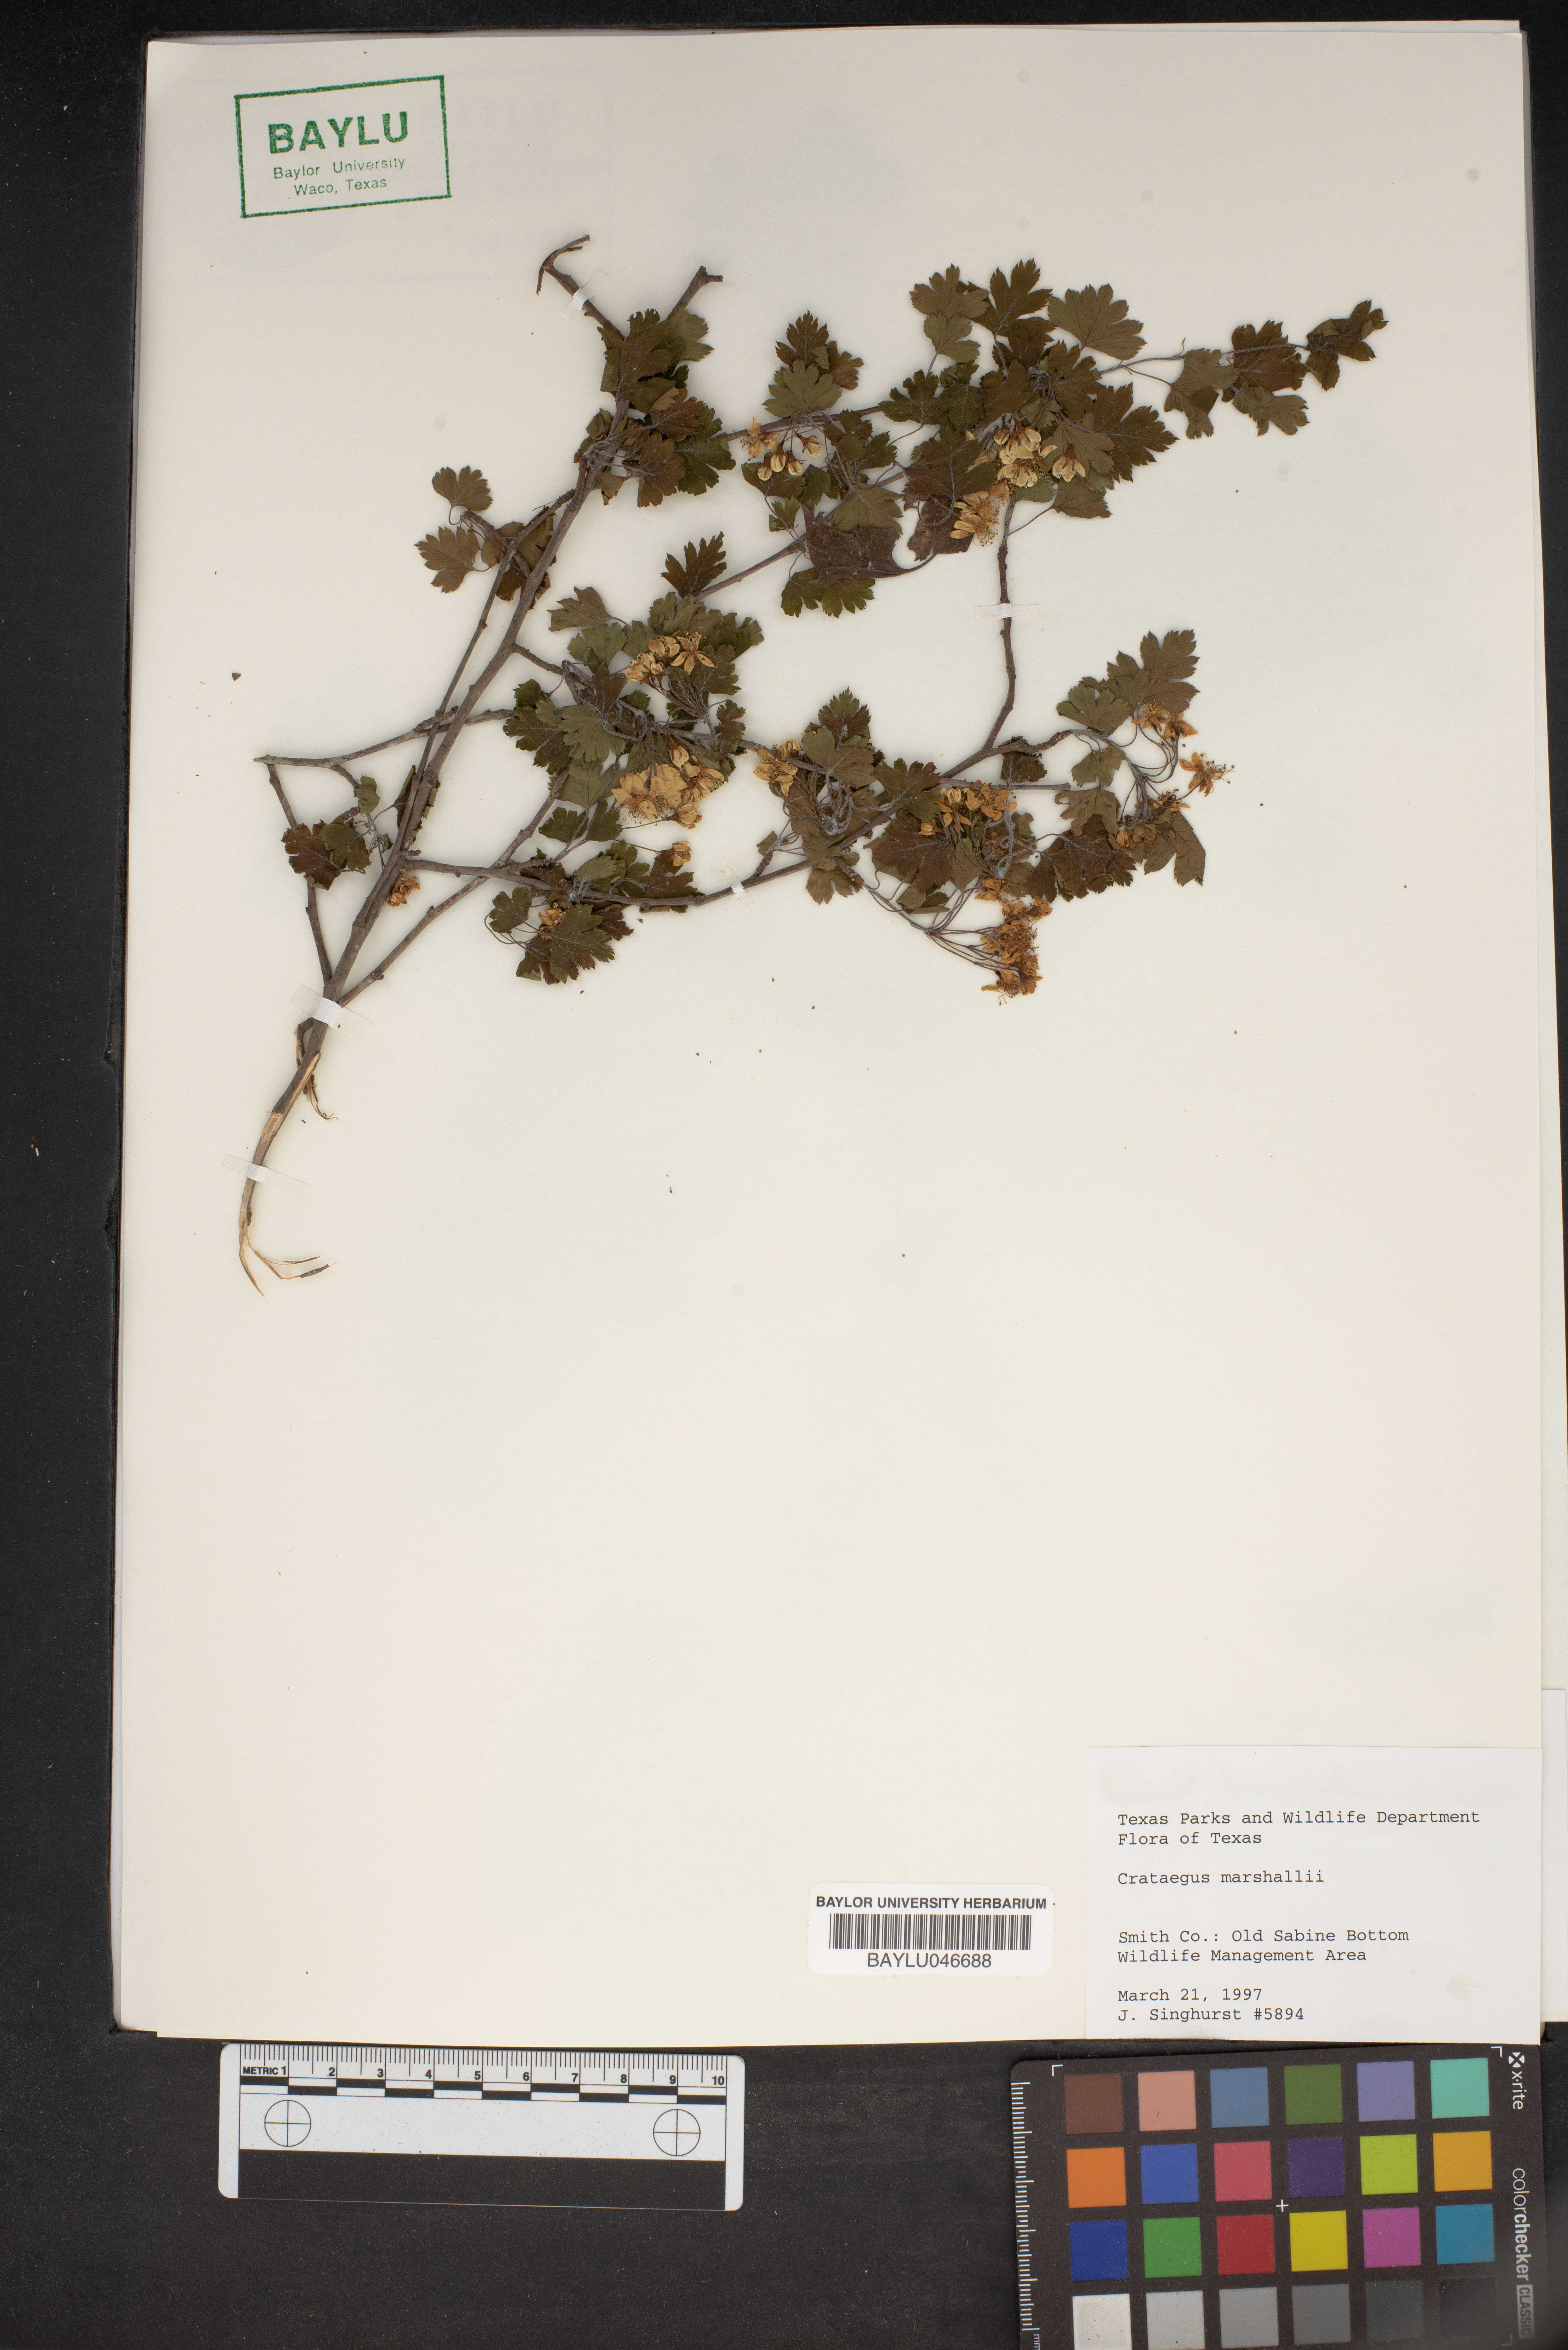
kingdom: Plantae
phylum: Tracheophyta
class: Magnoliopsida
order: Rosales
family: Rosaceae
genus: Crataegus
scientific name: Crataegus marshallii
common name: Parsley-hawthorn
